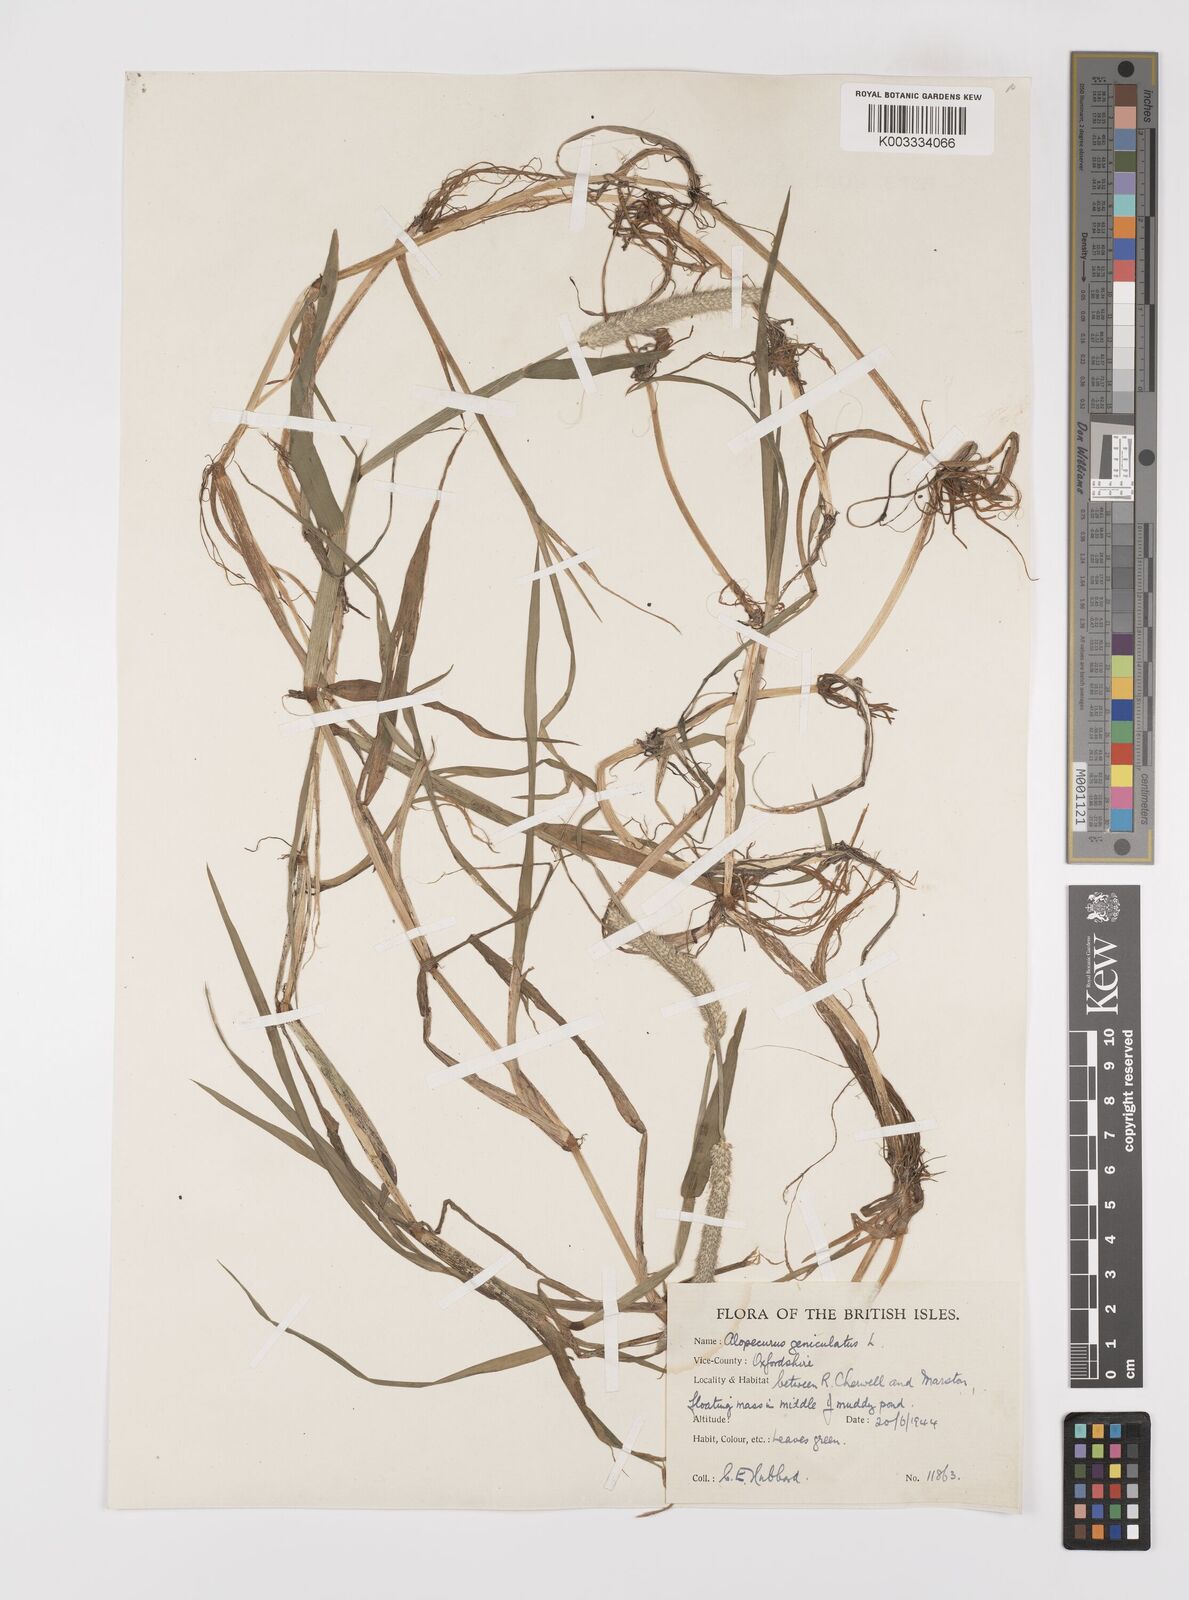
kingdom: Plantae
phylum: Tracheophyta
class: Liliopsida
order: Poales
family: Poaceae
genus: Alopecurus
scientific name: Alopecurus geniculatus
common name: Water foxtail
